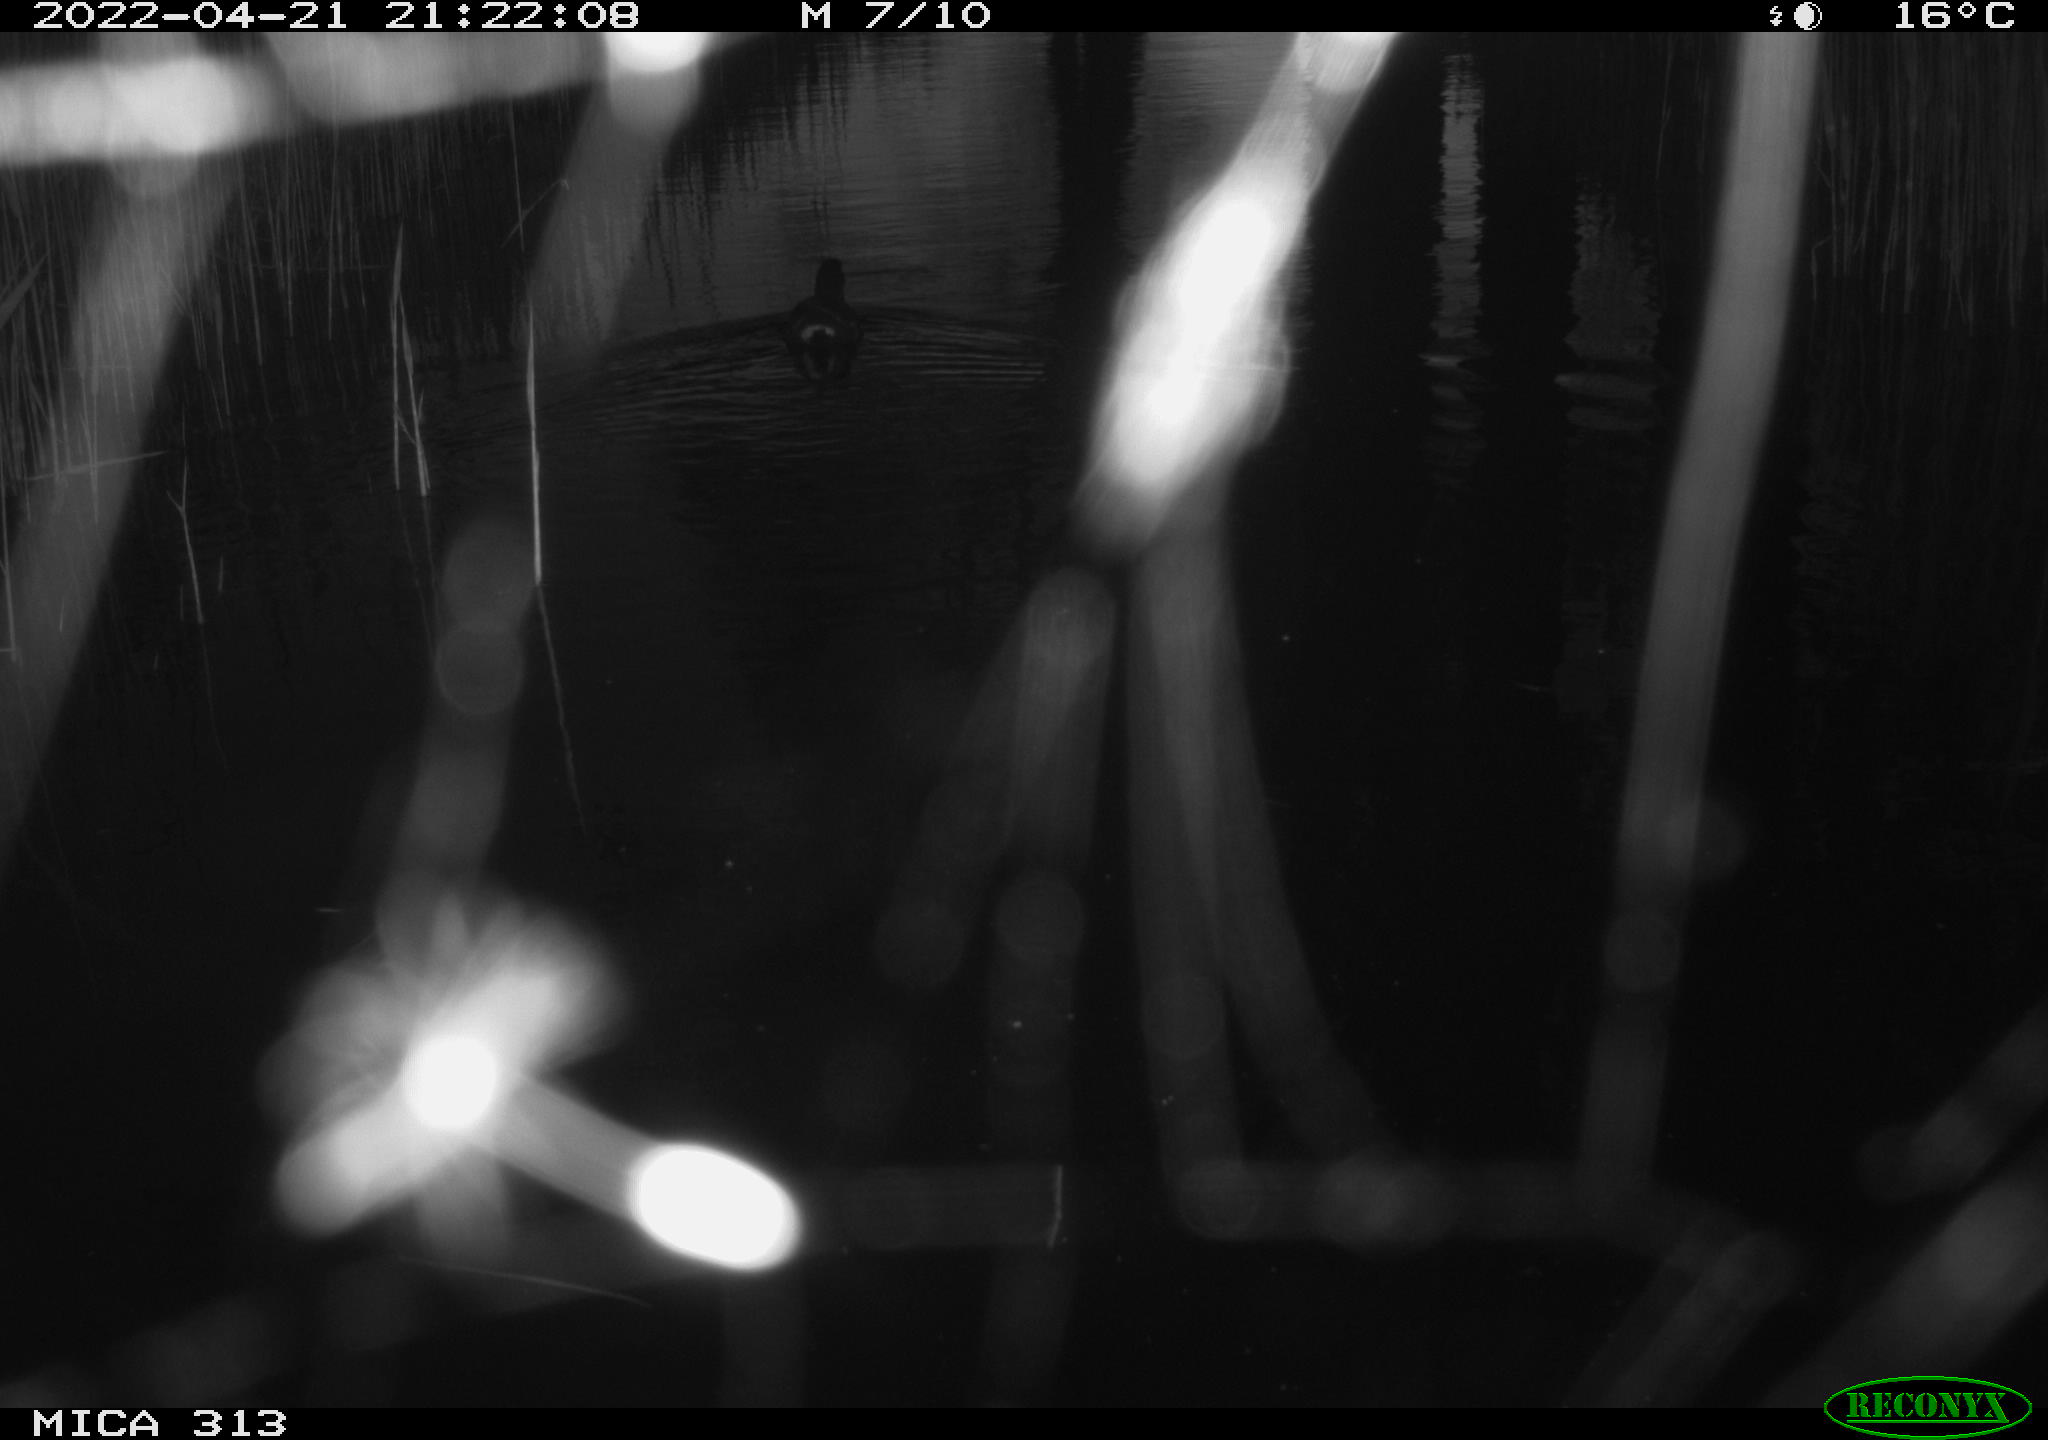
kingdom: Animalia
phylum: Chordata
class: Aves
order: Gruiformes
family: Rallidae
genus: Gallinula
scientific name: Gallinula chloropus
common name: Common moorhen
